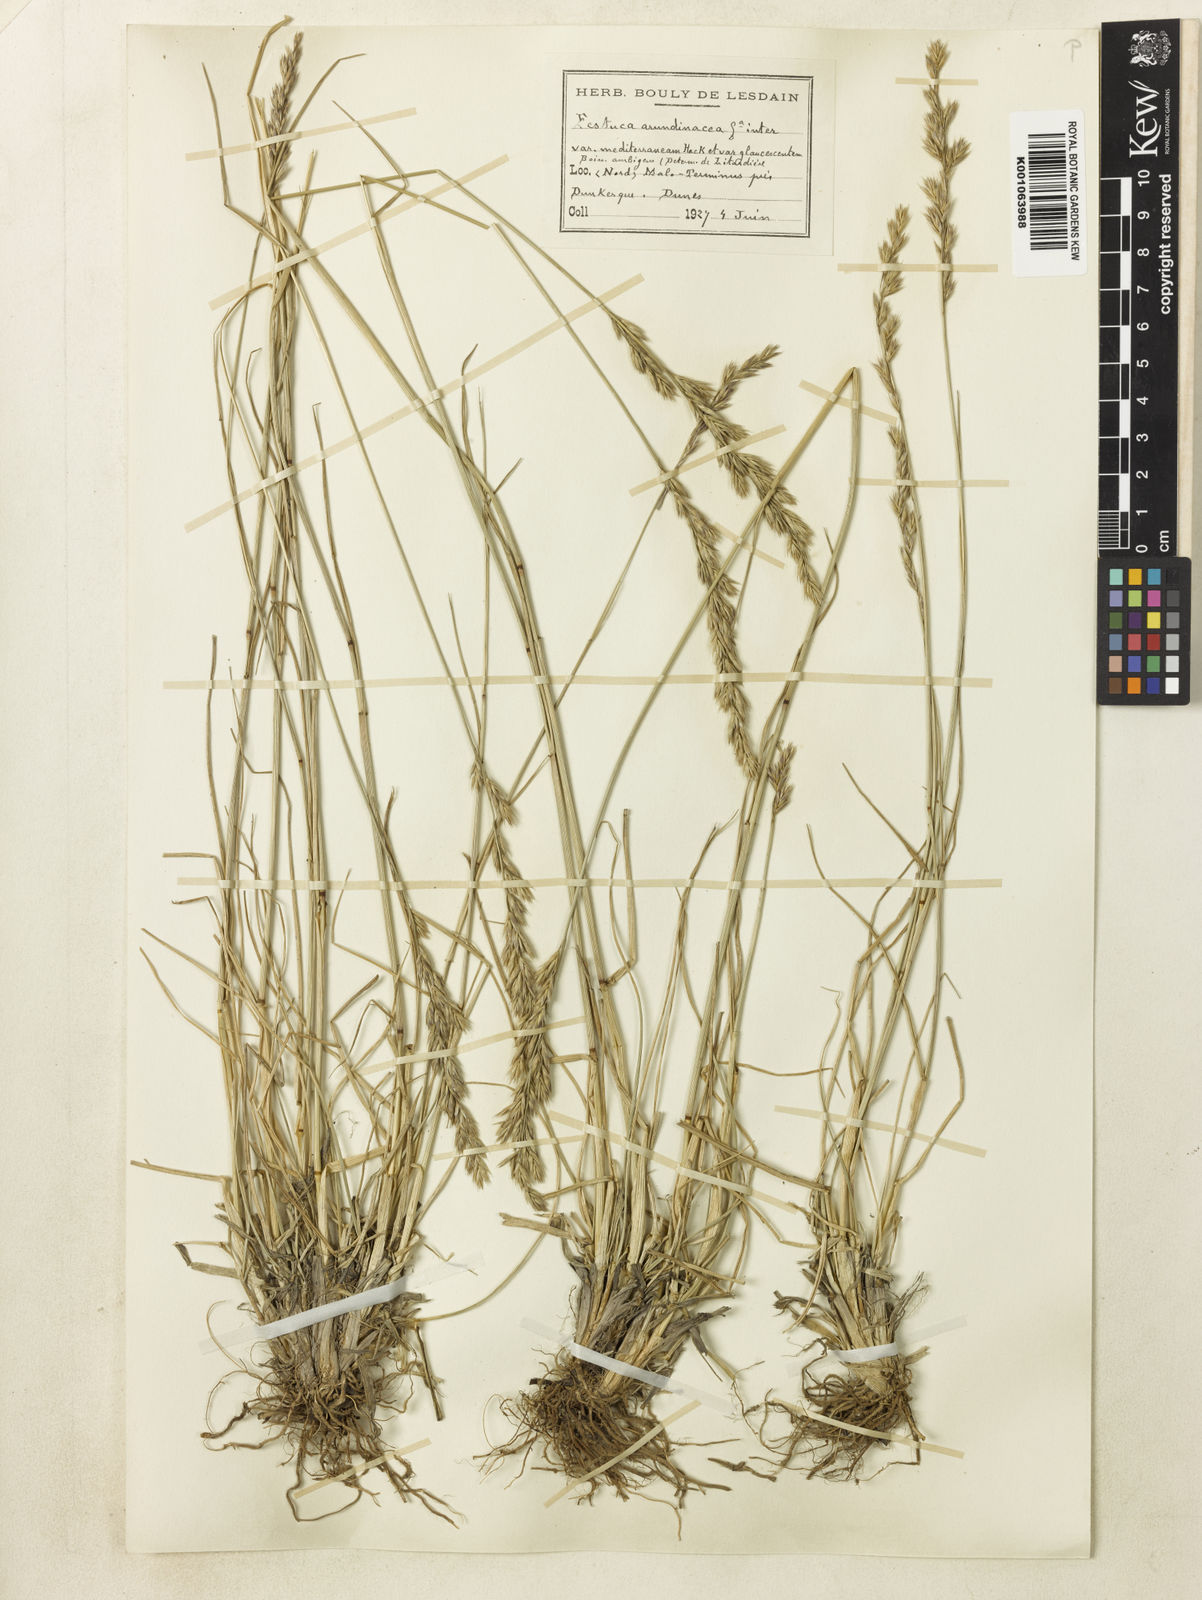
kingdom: Plantae
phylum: Tracheophyta
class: Liliopsida
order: Poales
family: Poaceae
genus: Lolium
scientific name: Lolium arundinaceum
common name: Reed fescue
